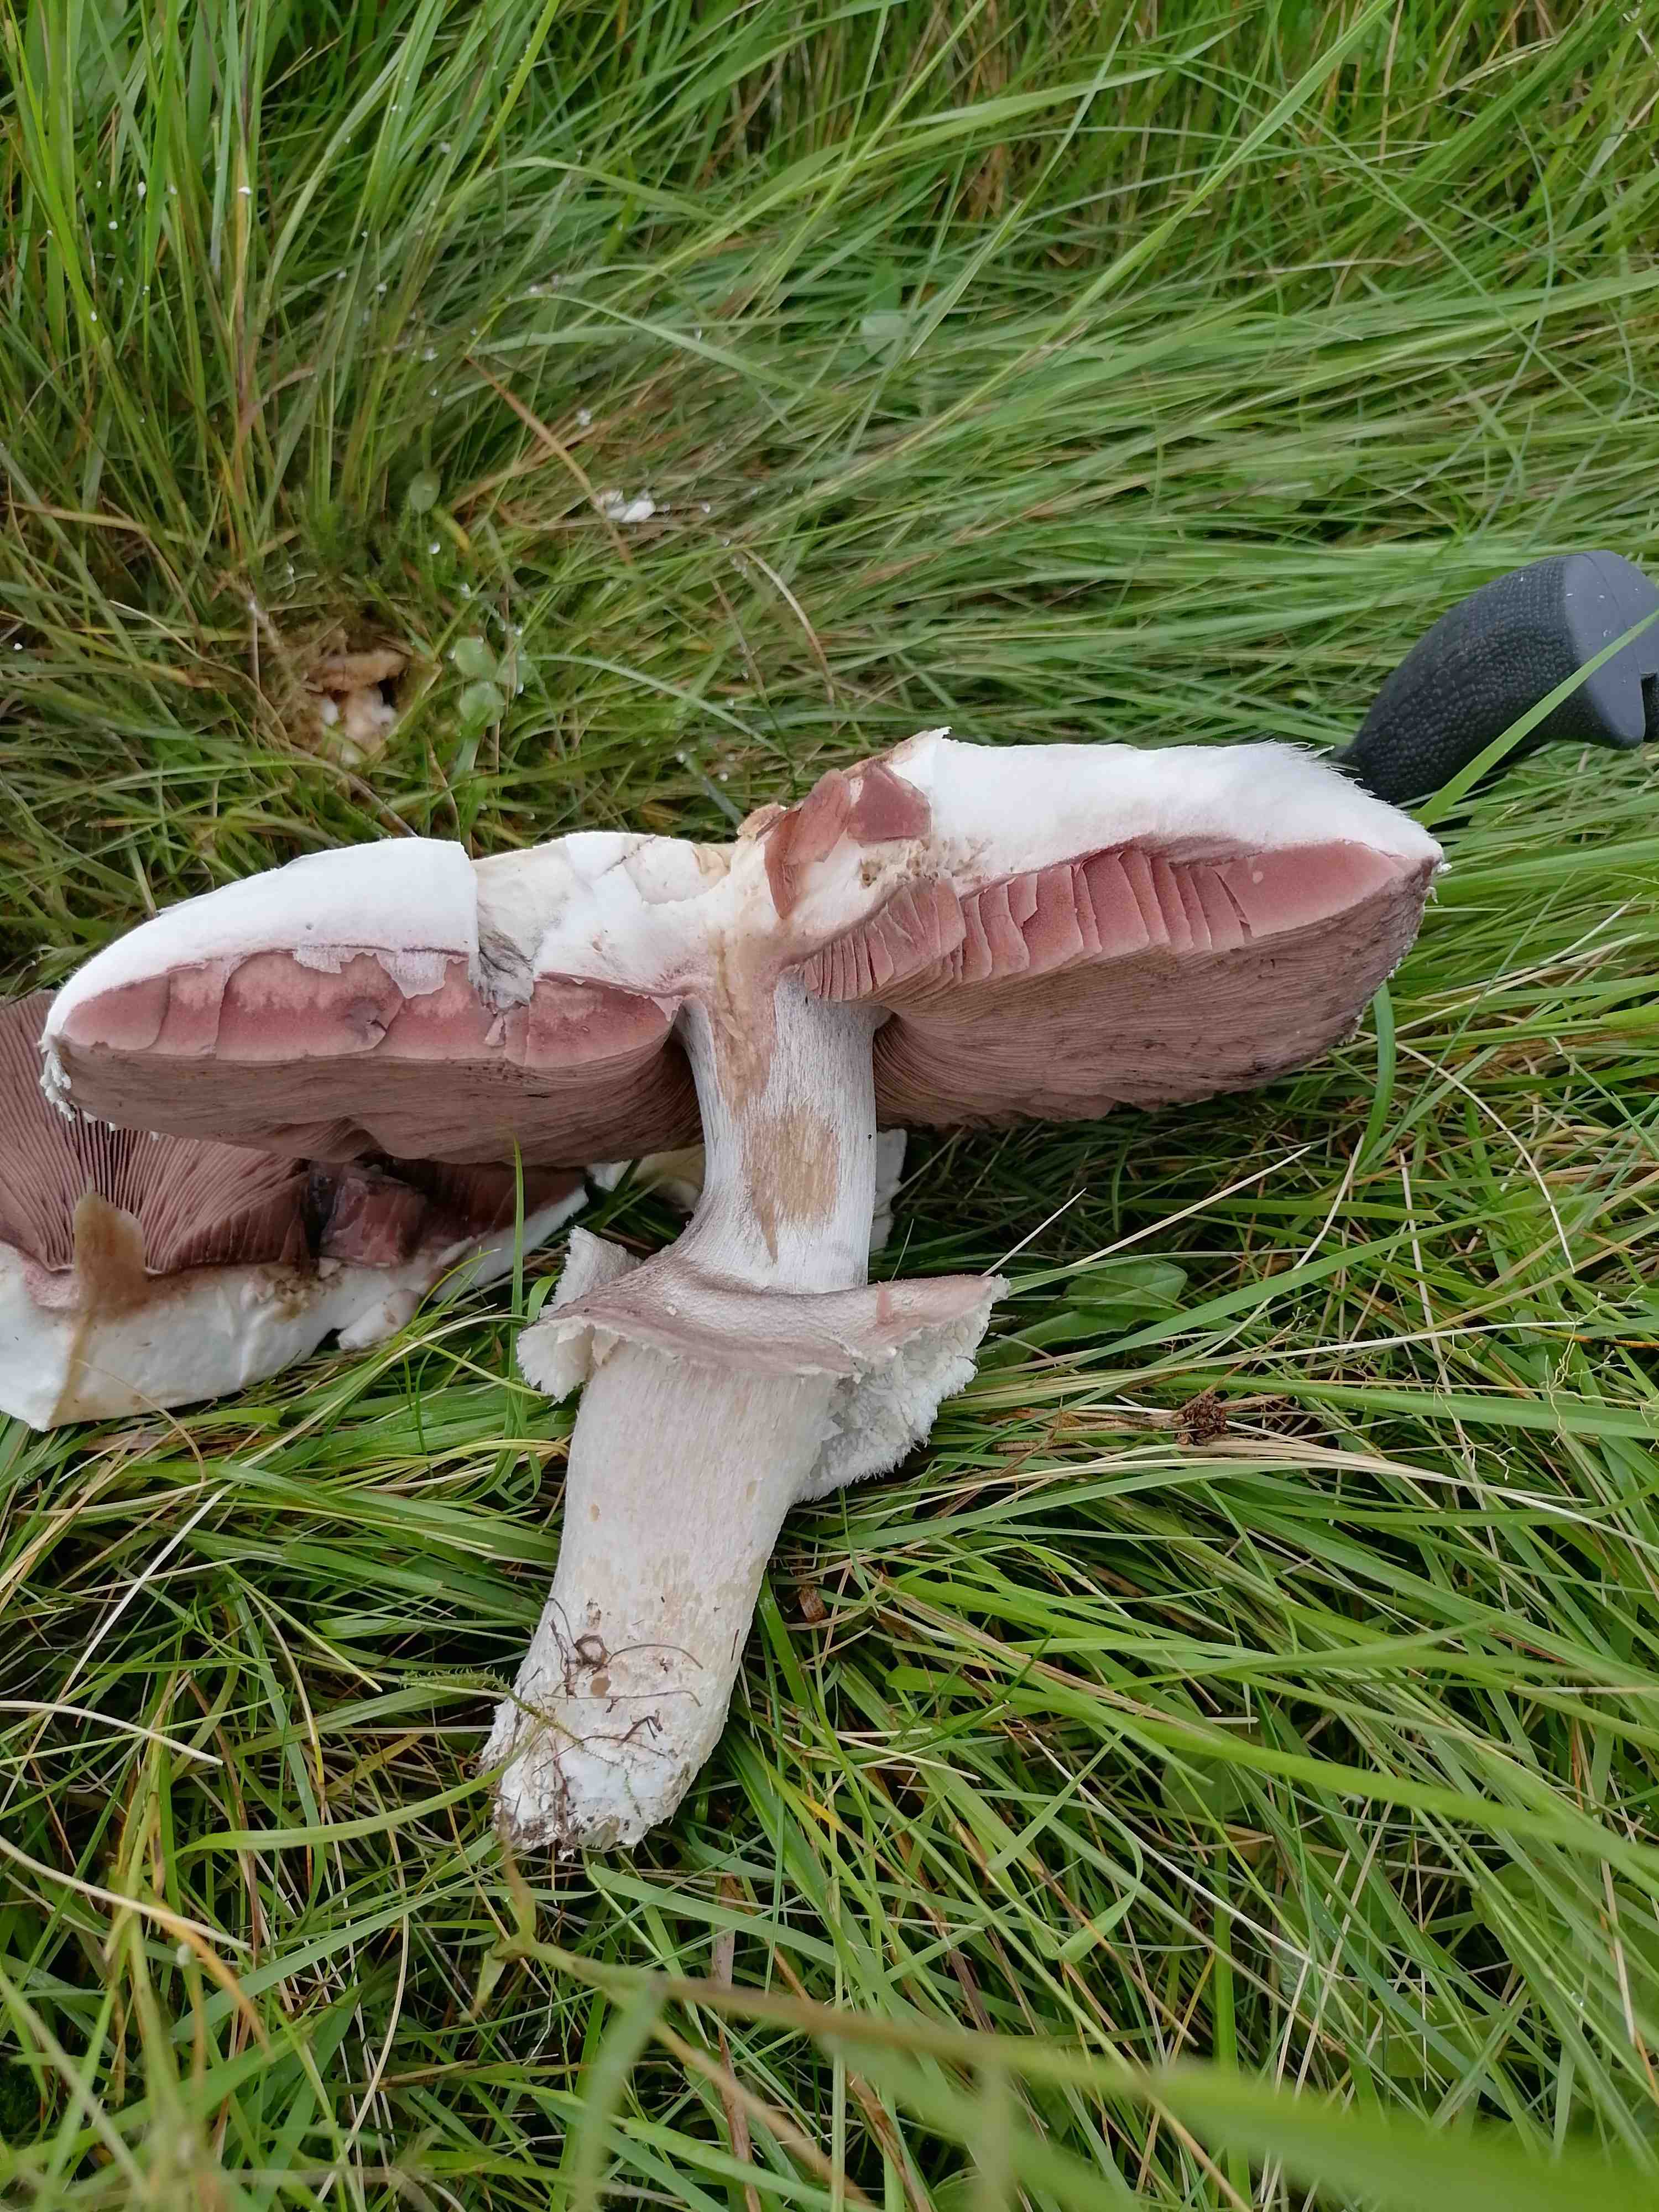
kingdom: Fungi
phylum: Basidiomycota
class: Agaricomycetes
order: Agaricales
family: Agaricaceae
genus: Agaricus
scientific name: Agaricus
